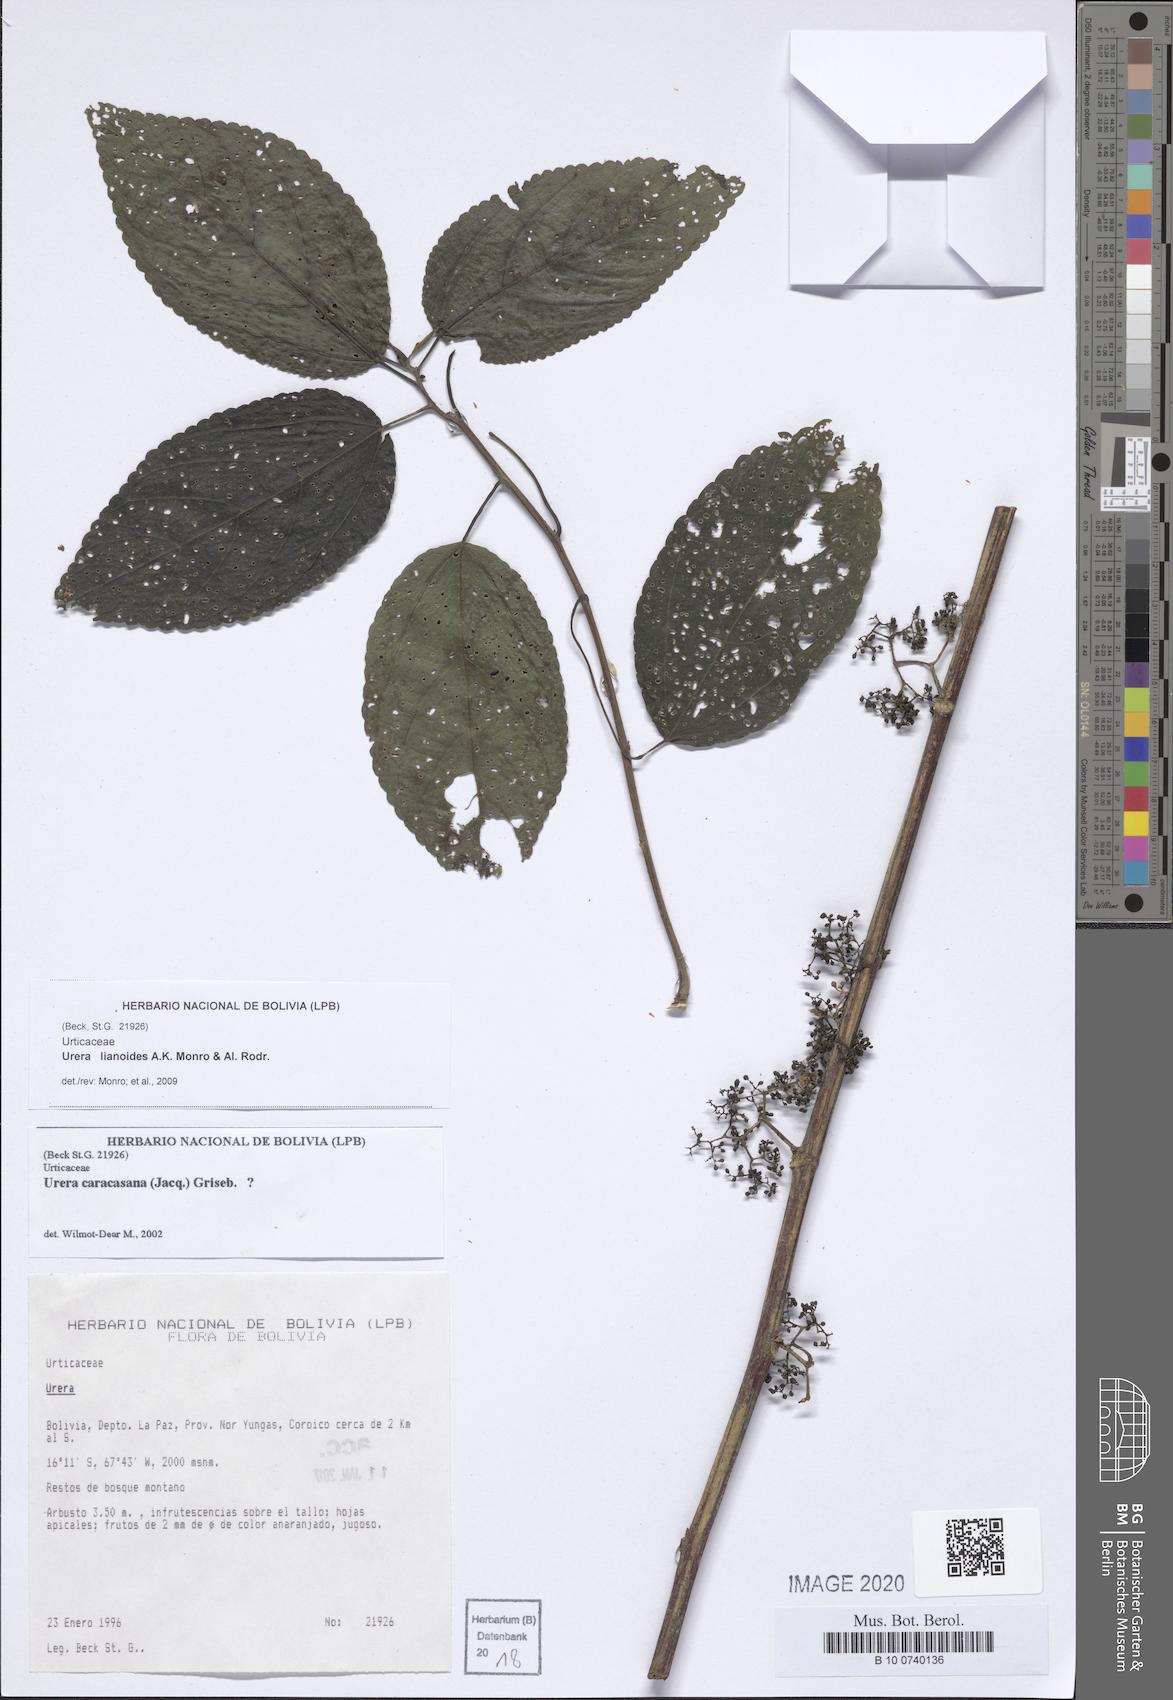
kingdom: Plantae
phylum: Tracheophyta
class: Magnoliopsida
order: Rosales
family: Urticaceae
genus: Urera
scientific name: Urera lianoides
